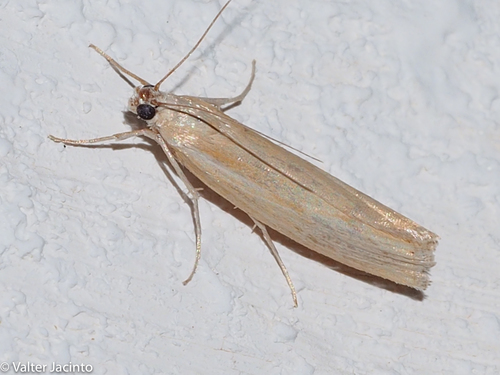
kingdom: Animalia
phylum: Arthropoda
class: Insecta
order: Lepidoptera
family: Crambidae
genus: Metacrambus
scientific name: Metacrambus pallidellus
